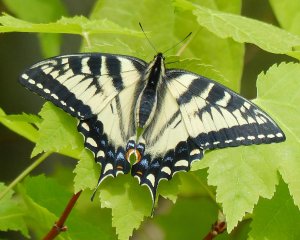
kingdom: Animalia
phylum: Arthropoda
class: Insecta
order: Lepidoptera
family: Papilionidae
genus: Pterourus
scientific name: Pterourus canadensis
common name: Canadian Tiger Swallowtail
